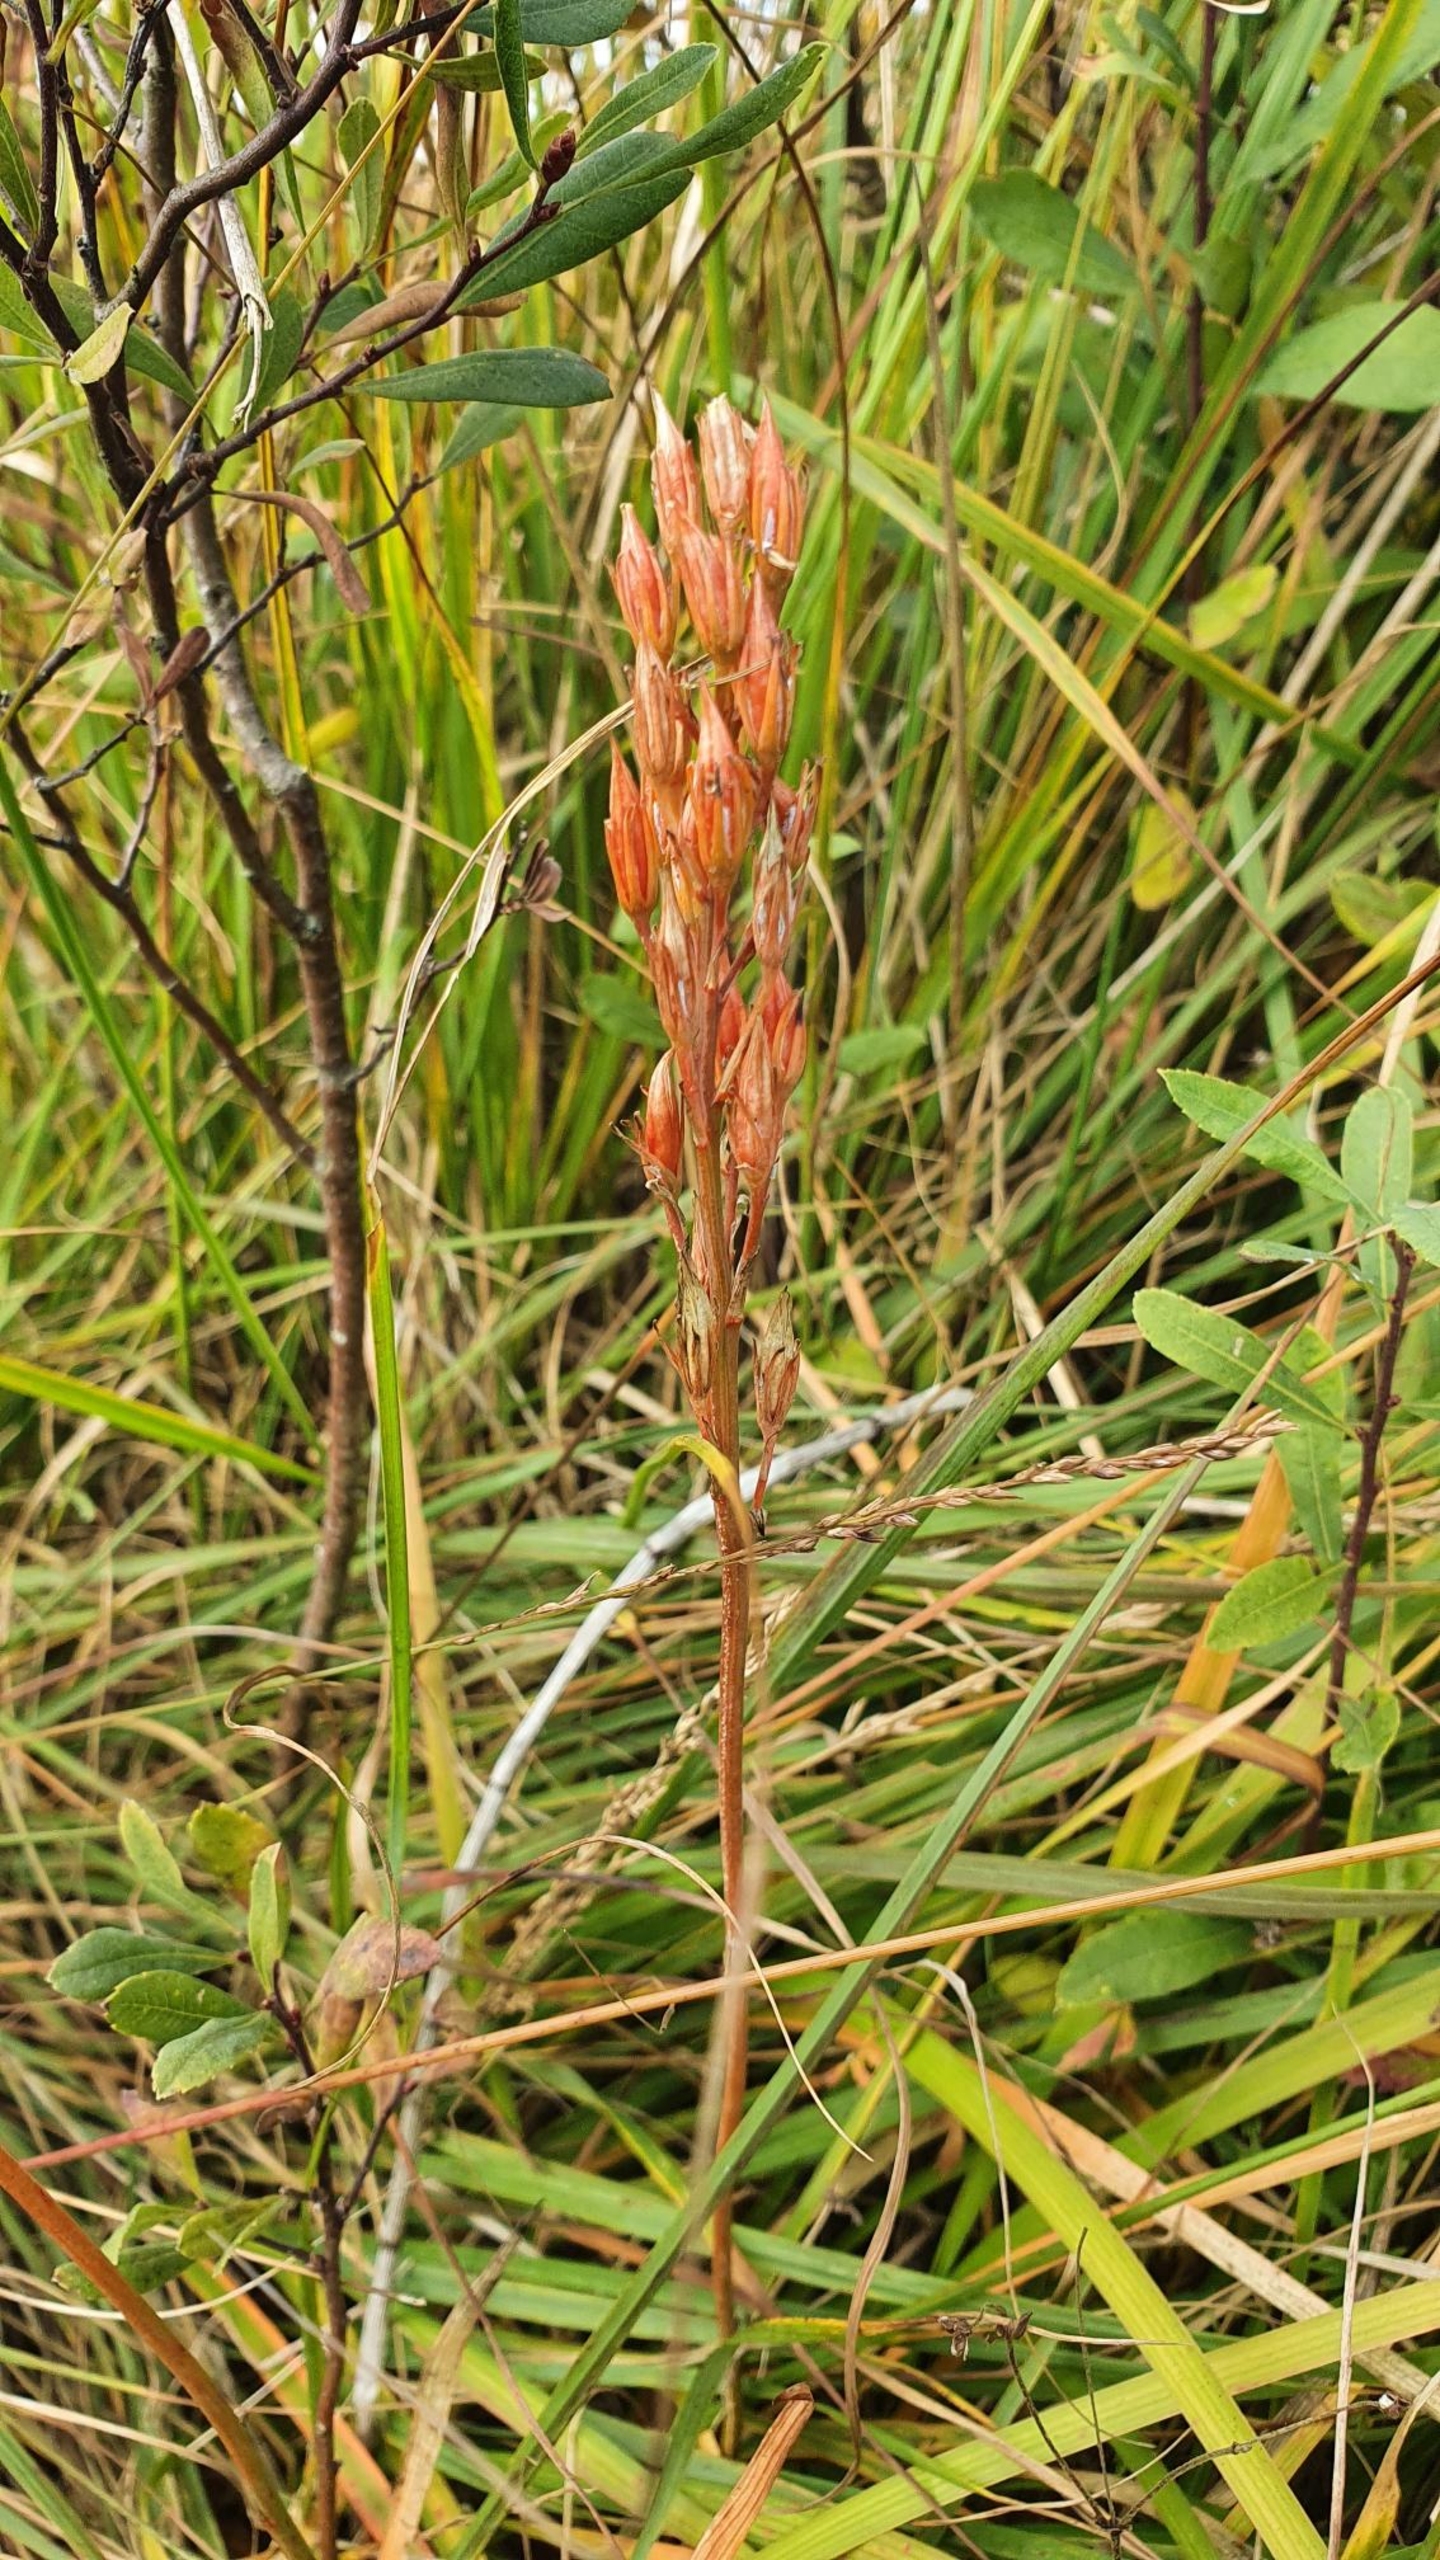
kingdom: Plantae
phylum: Tracheophyta
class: Liliopsida
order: Dioscoreales
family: Nartheciaceae
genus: Narthecium
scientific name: Narthecium ossifragum
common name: Benbræk
